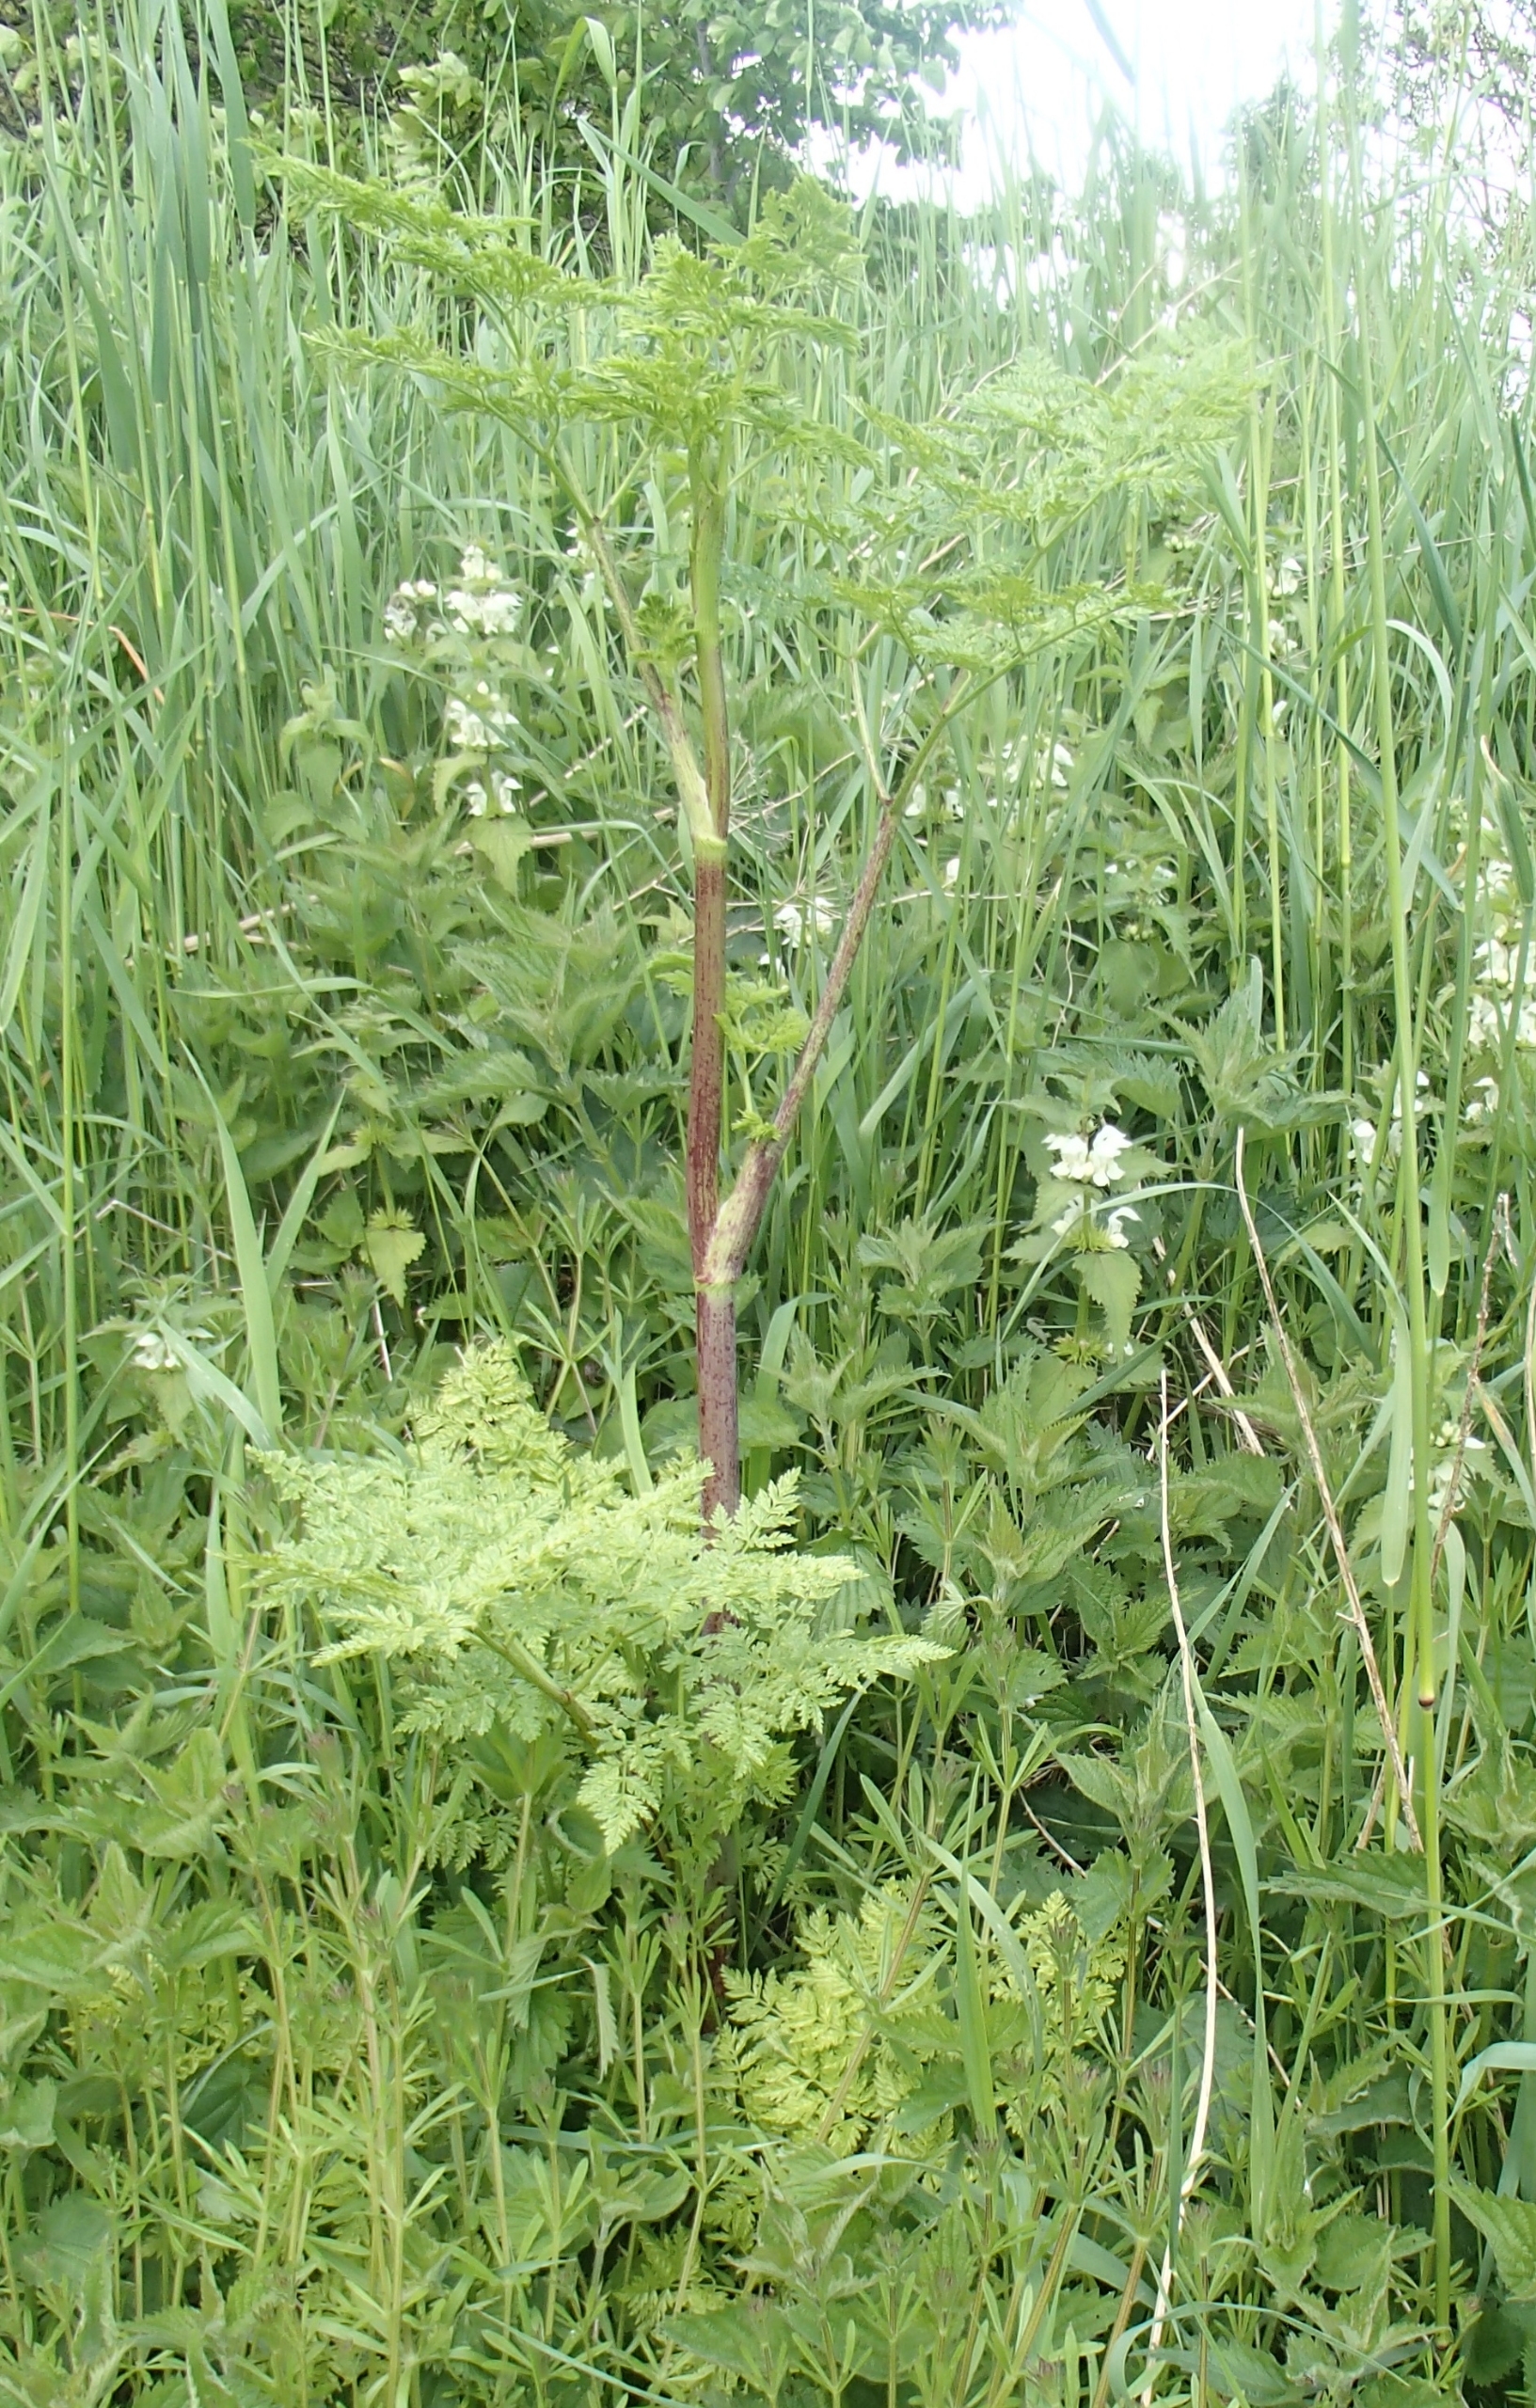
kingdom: Plantae
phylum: Tracheophyta
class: Magnoliopsida
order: Apiales
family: Apiaceae
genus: Conium
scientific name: Conium maculatum
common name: Skarntyde
